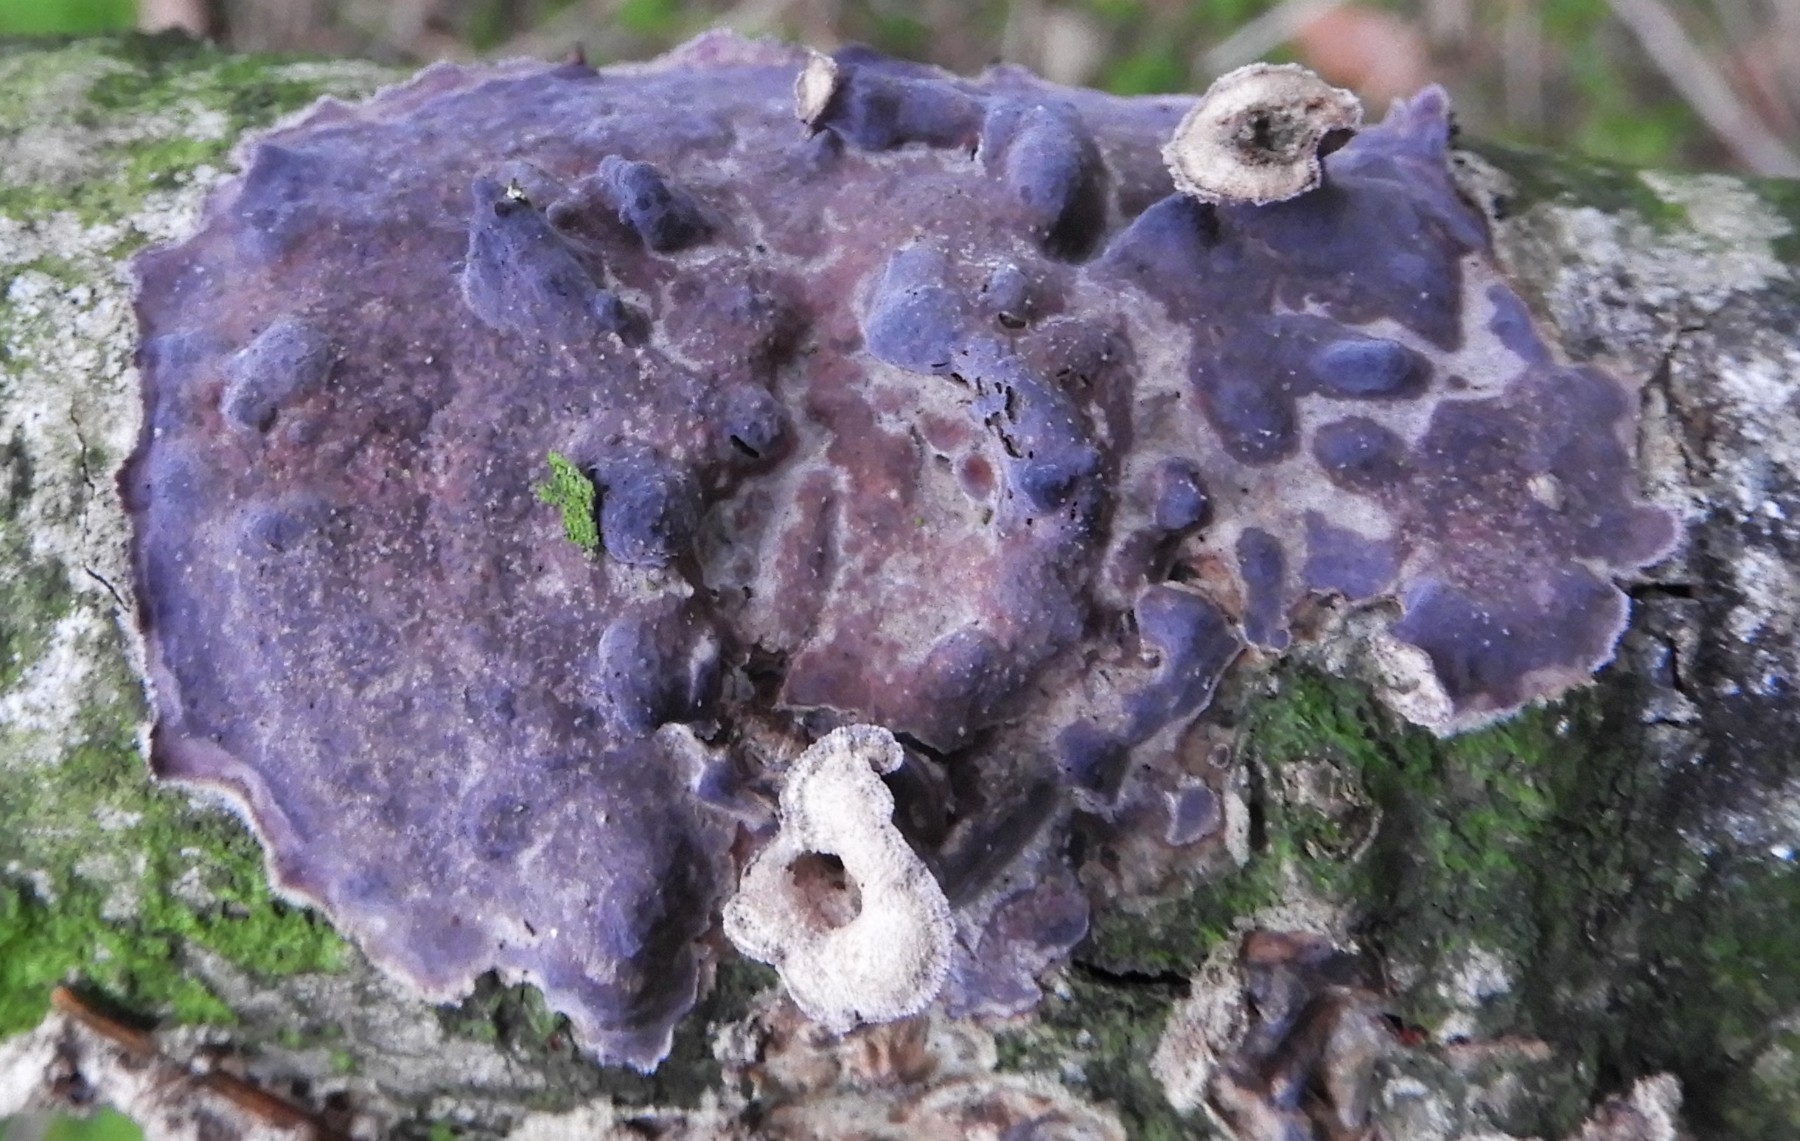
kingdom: Fungi
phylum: Basidiomycota
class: Agaricomycetes
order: Agaricales
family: Cyphellaceae
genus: Chondrostereum
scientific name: Chondrostereum purpureum
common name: purpurlædersvamp
